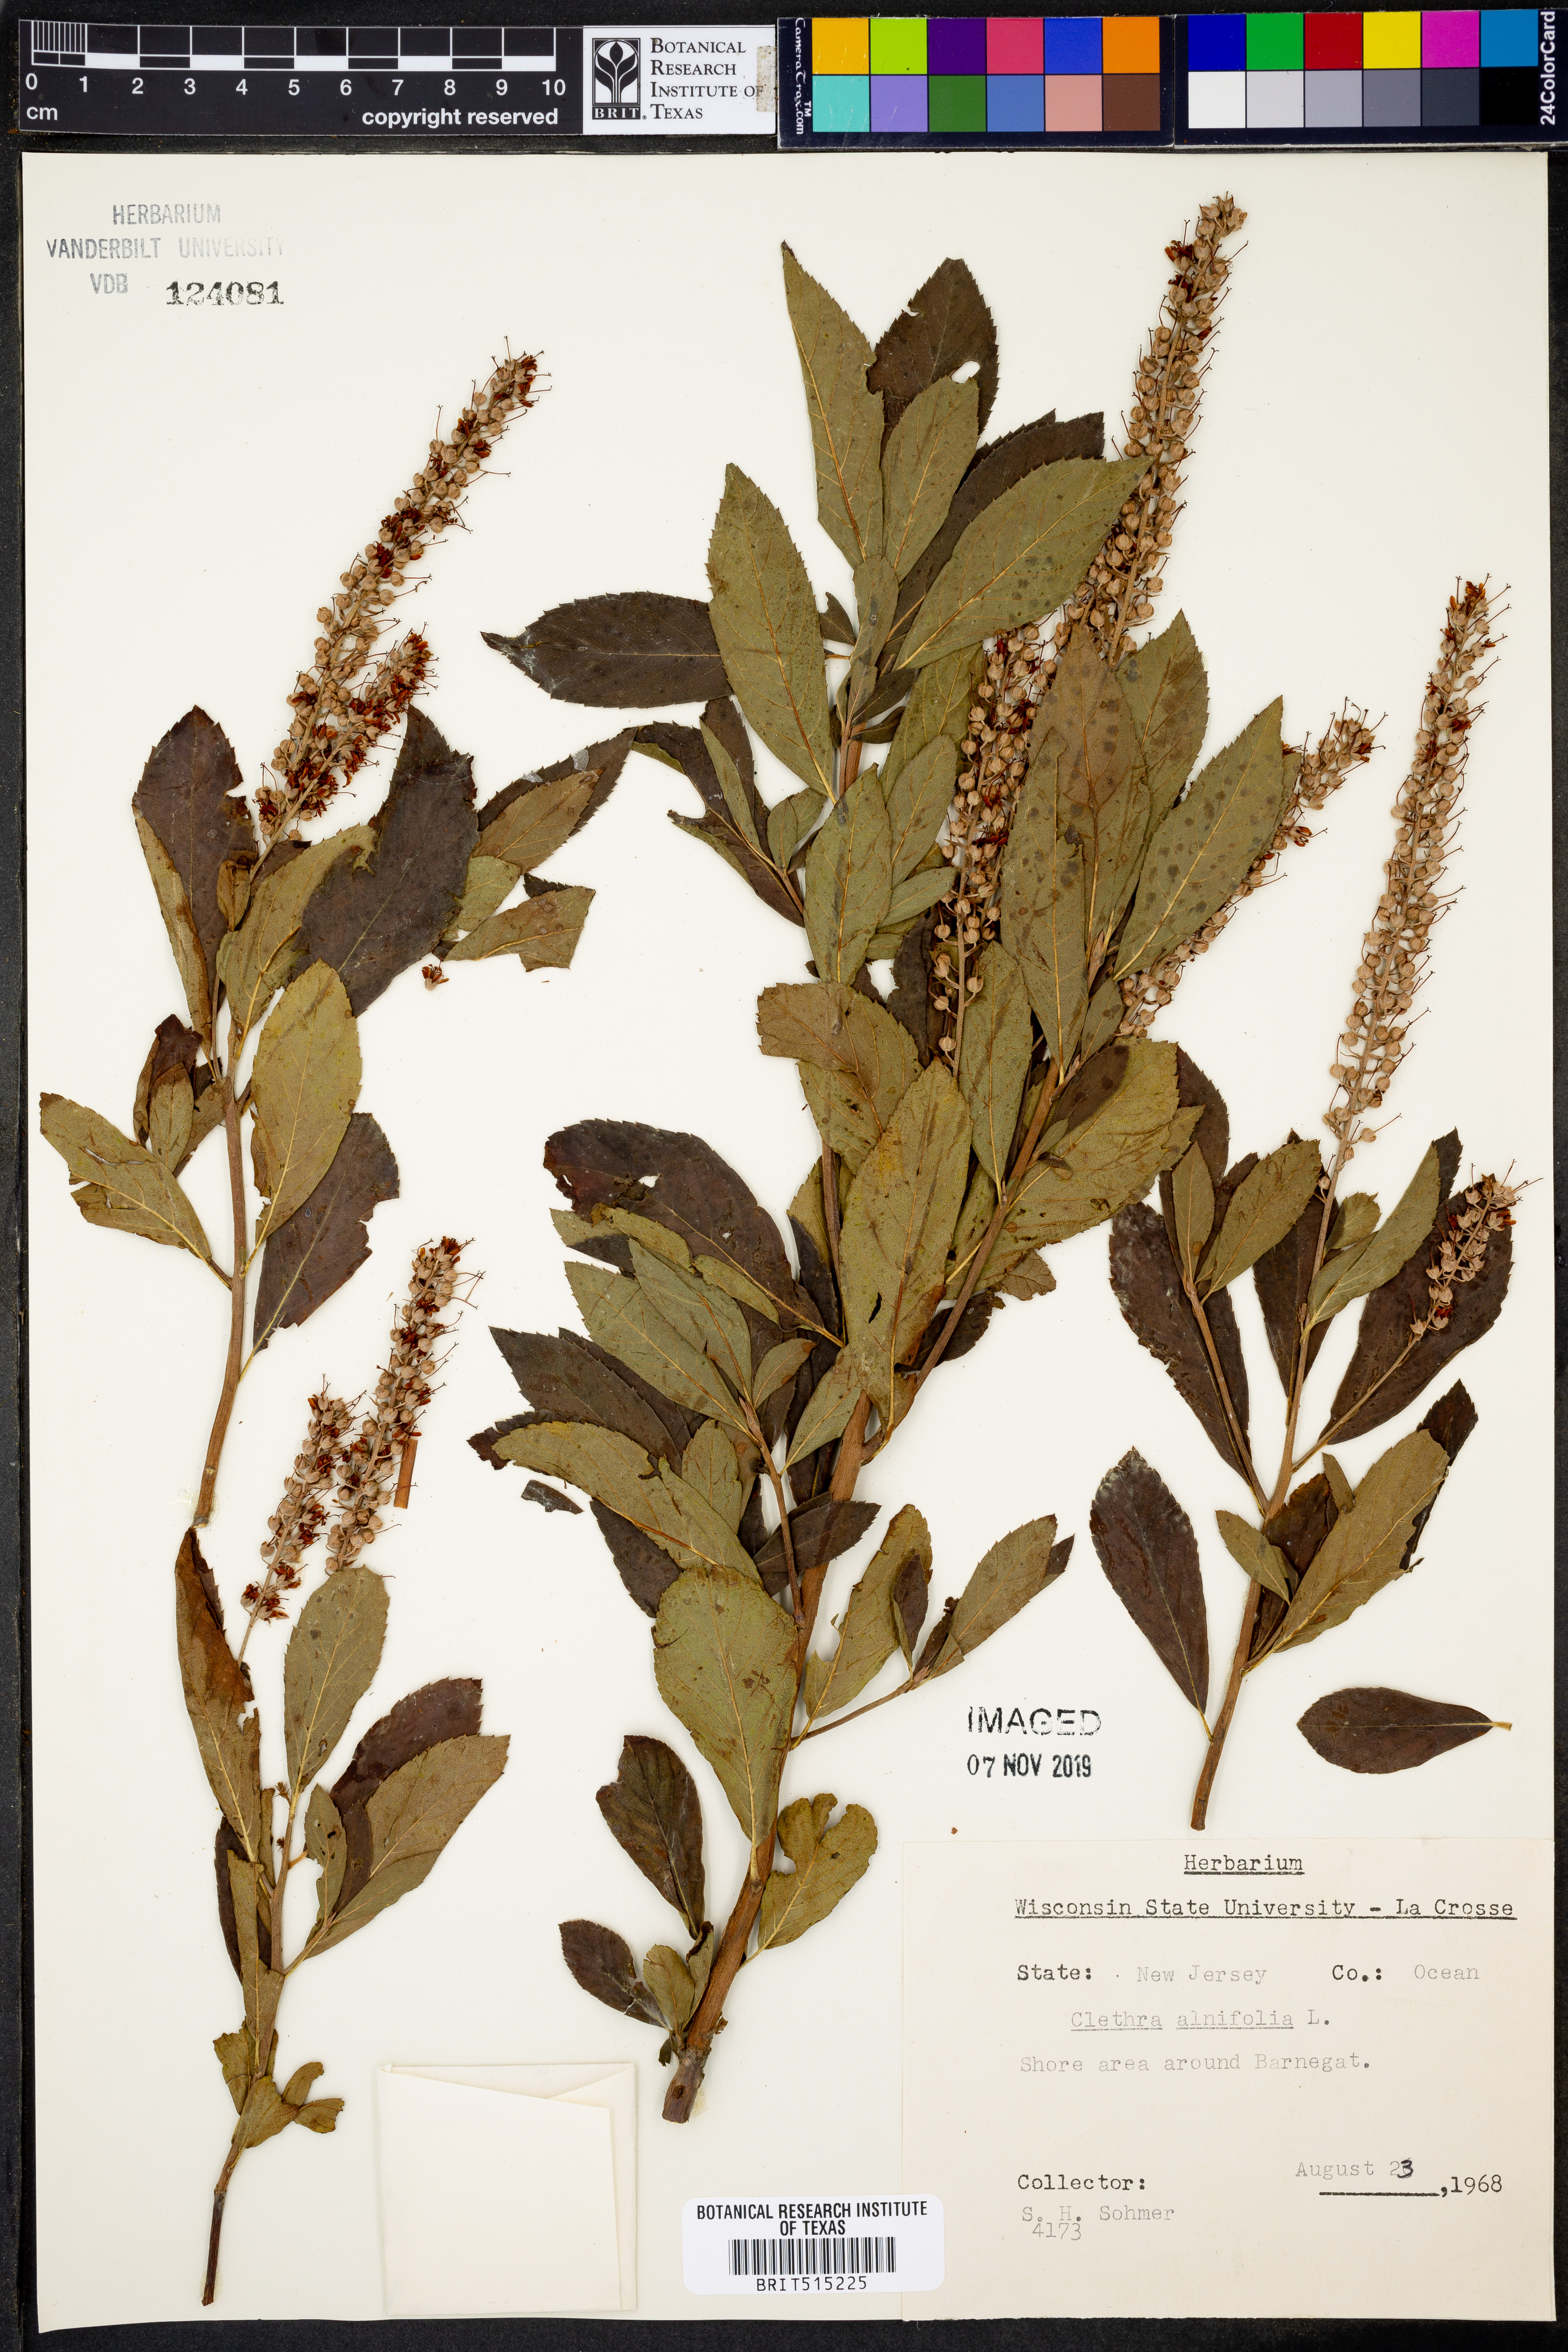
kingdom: Plantae
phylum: Tracheophyta
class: Magnoliopsida
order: Ericales
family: Clethraceae
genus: Clethra
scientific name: Clethra alnifolia
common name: Sweet pepperbush
